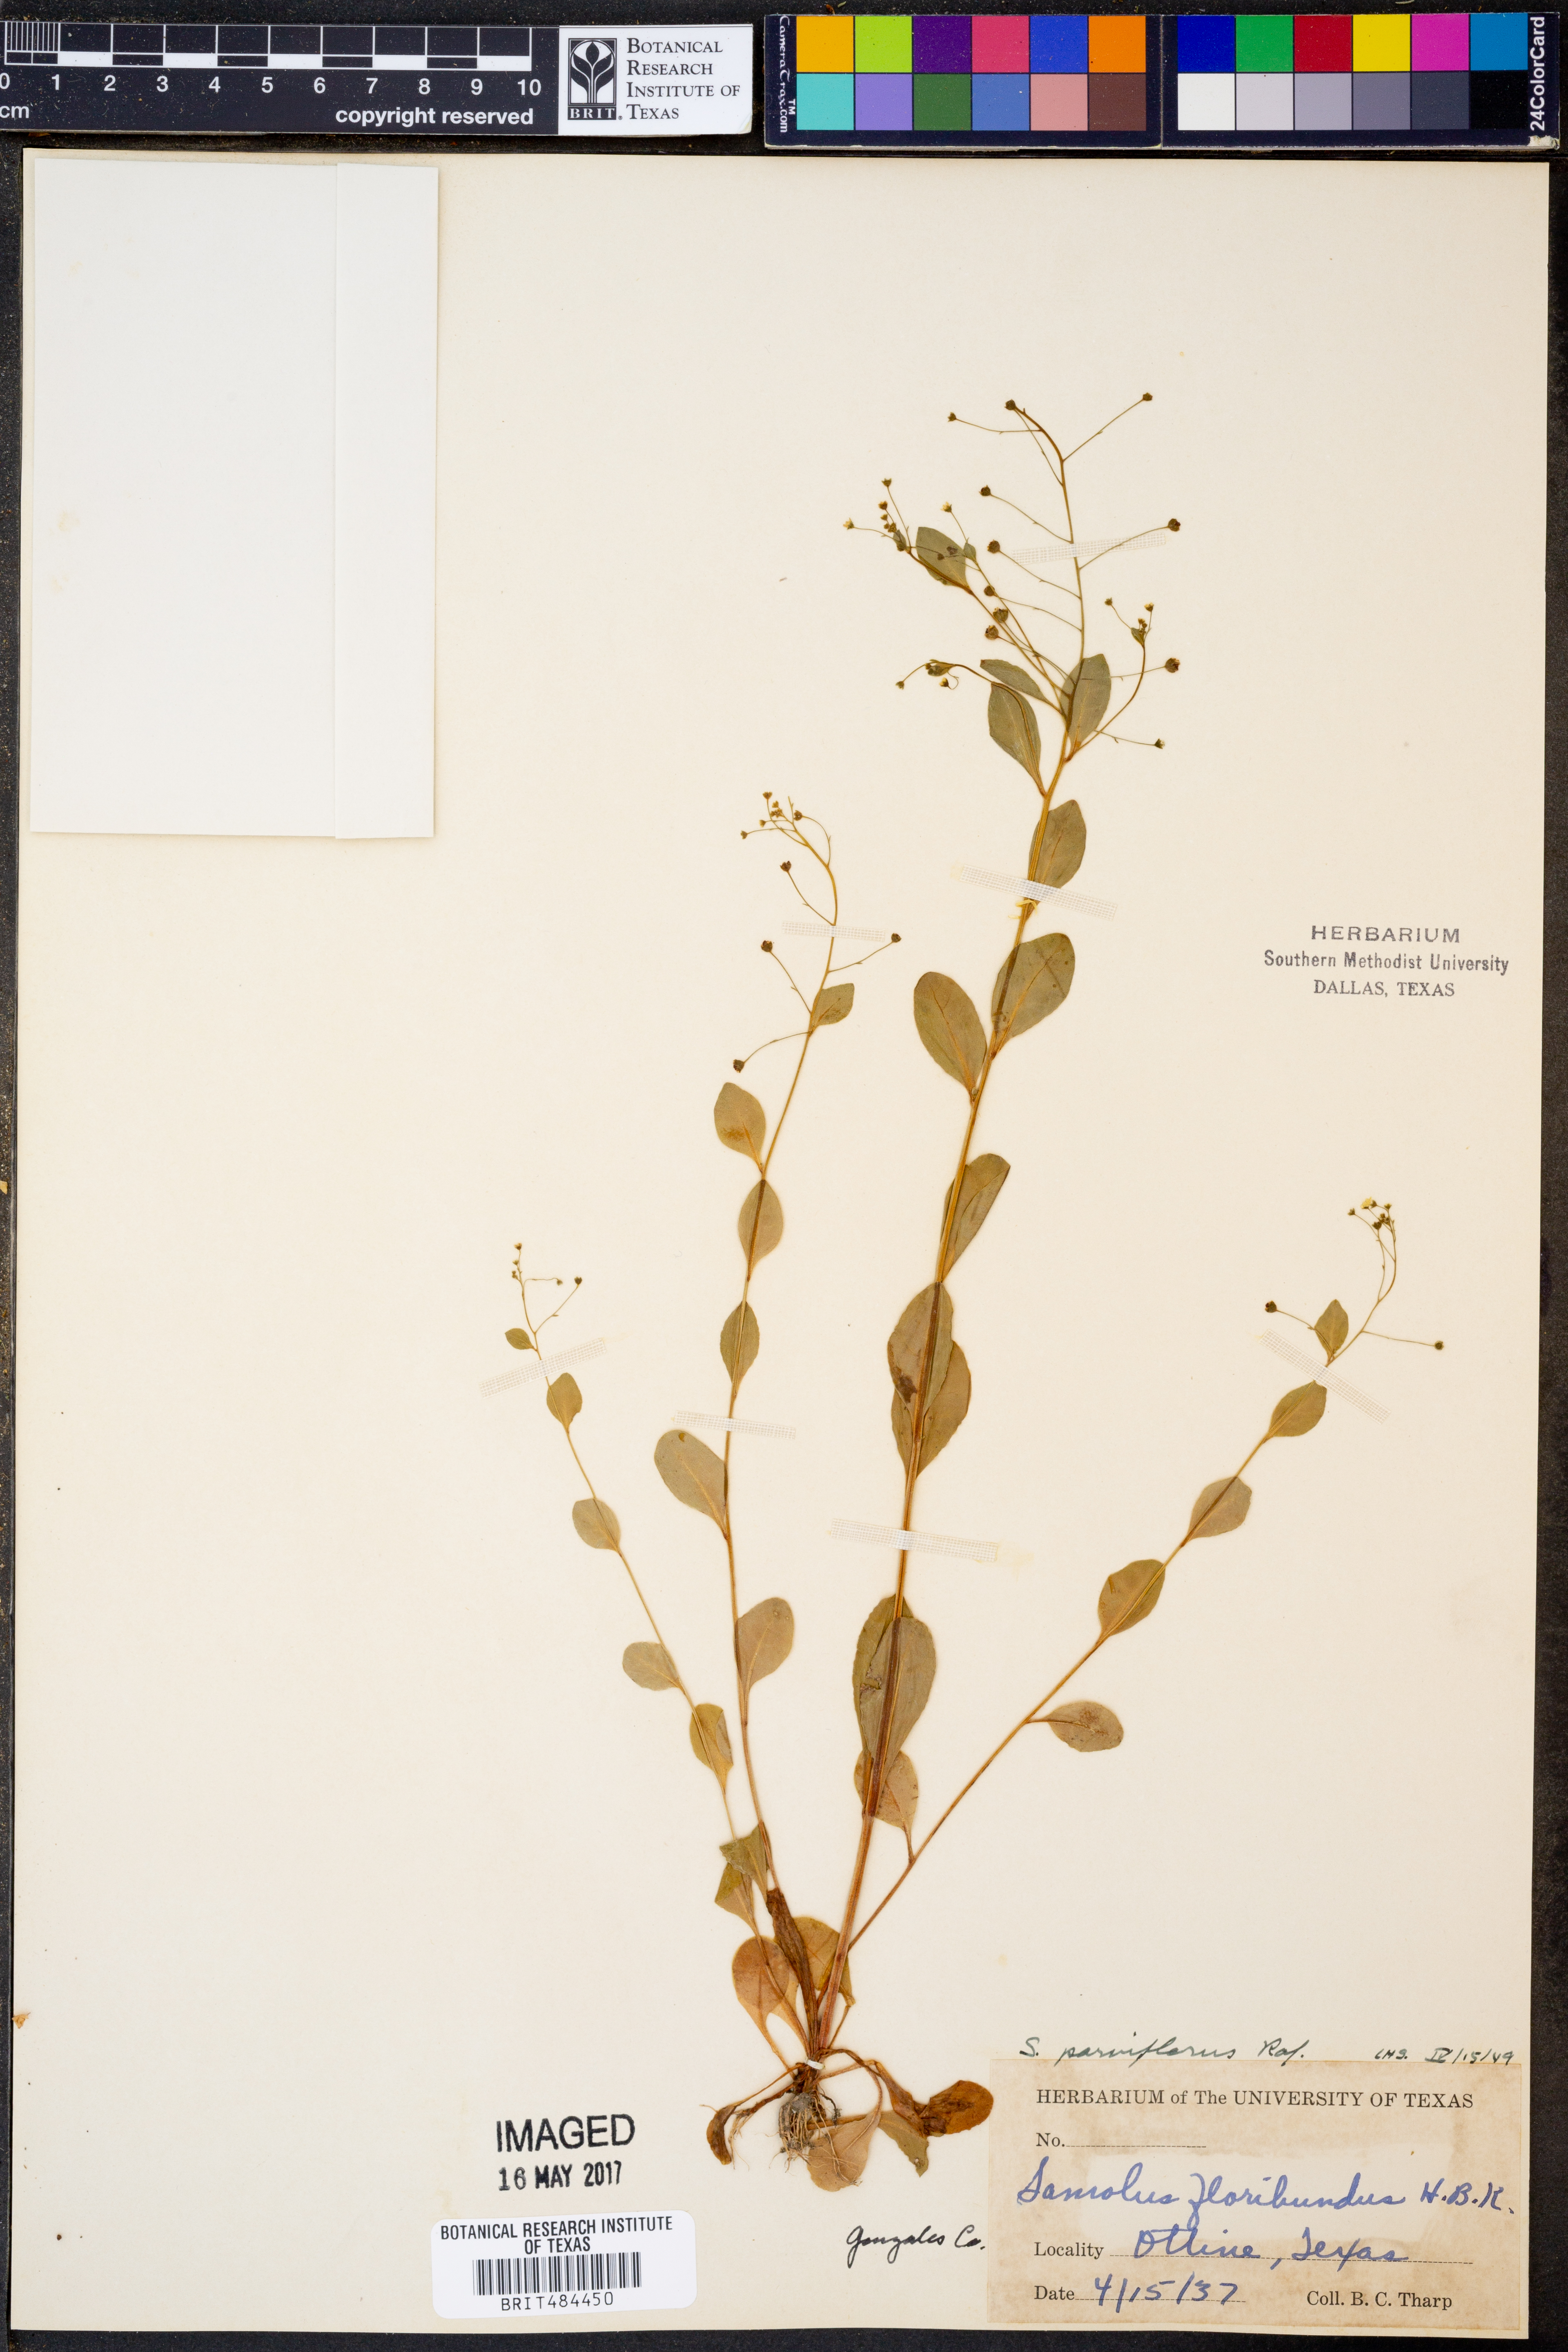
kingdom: Plantae
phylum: Tracheophyta
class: Magnoliopsida
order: Ericales
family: Primulaceae
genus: Samolus
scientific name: Samolus parviflorus
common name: False water pimpernel
